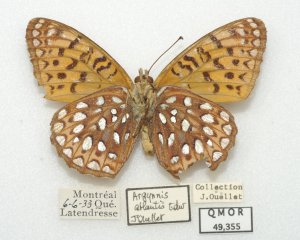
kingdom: Animalia
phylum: Arthropoda
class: Insecta
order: Lepidoptera
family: Nymphalidae
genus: Speyeria
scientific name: Speyeria atlantis
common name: Atlantis Fritillary
